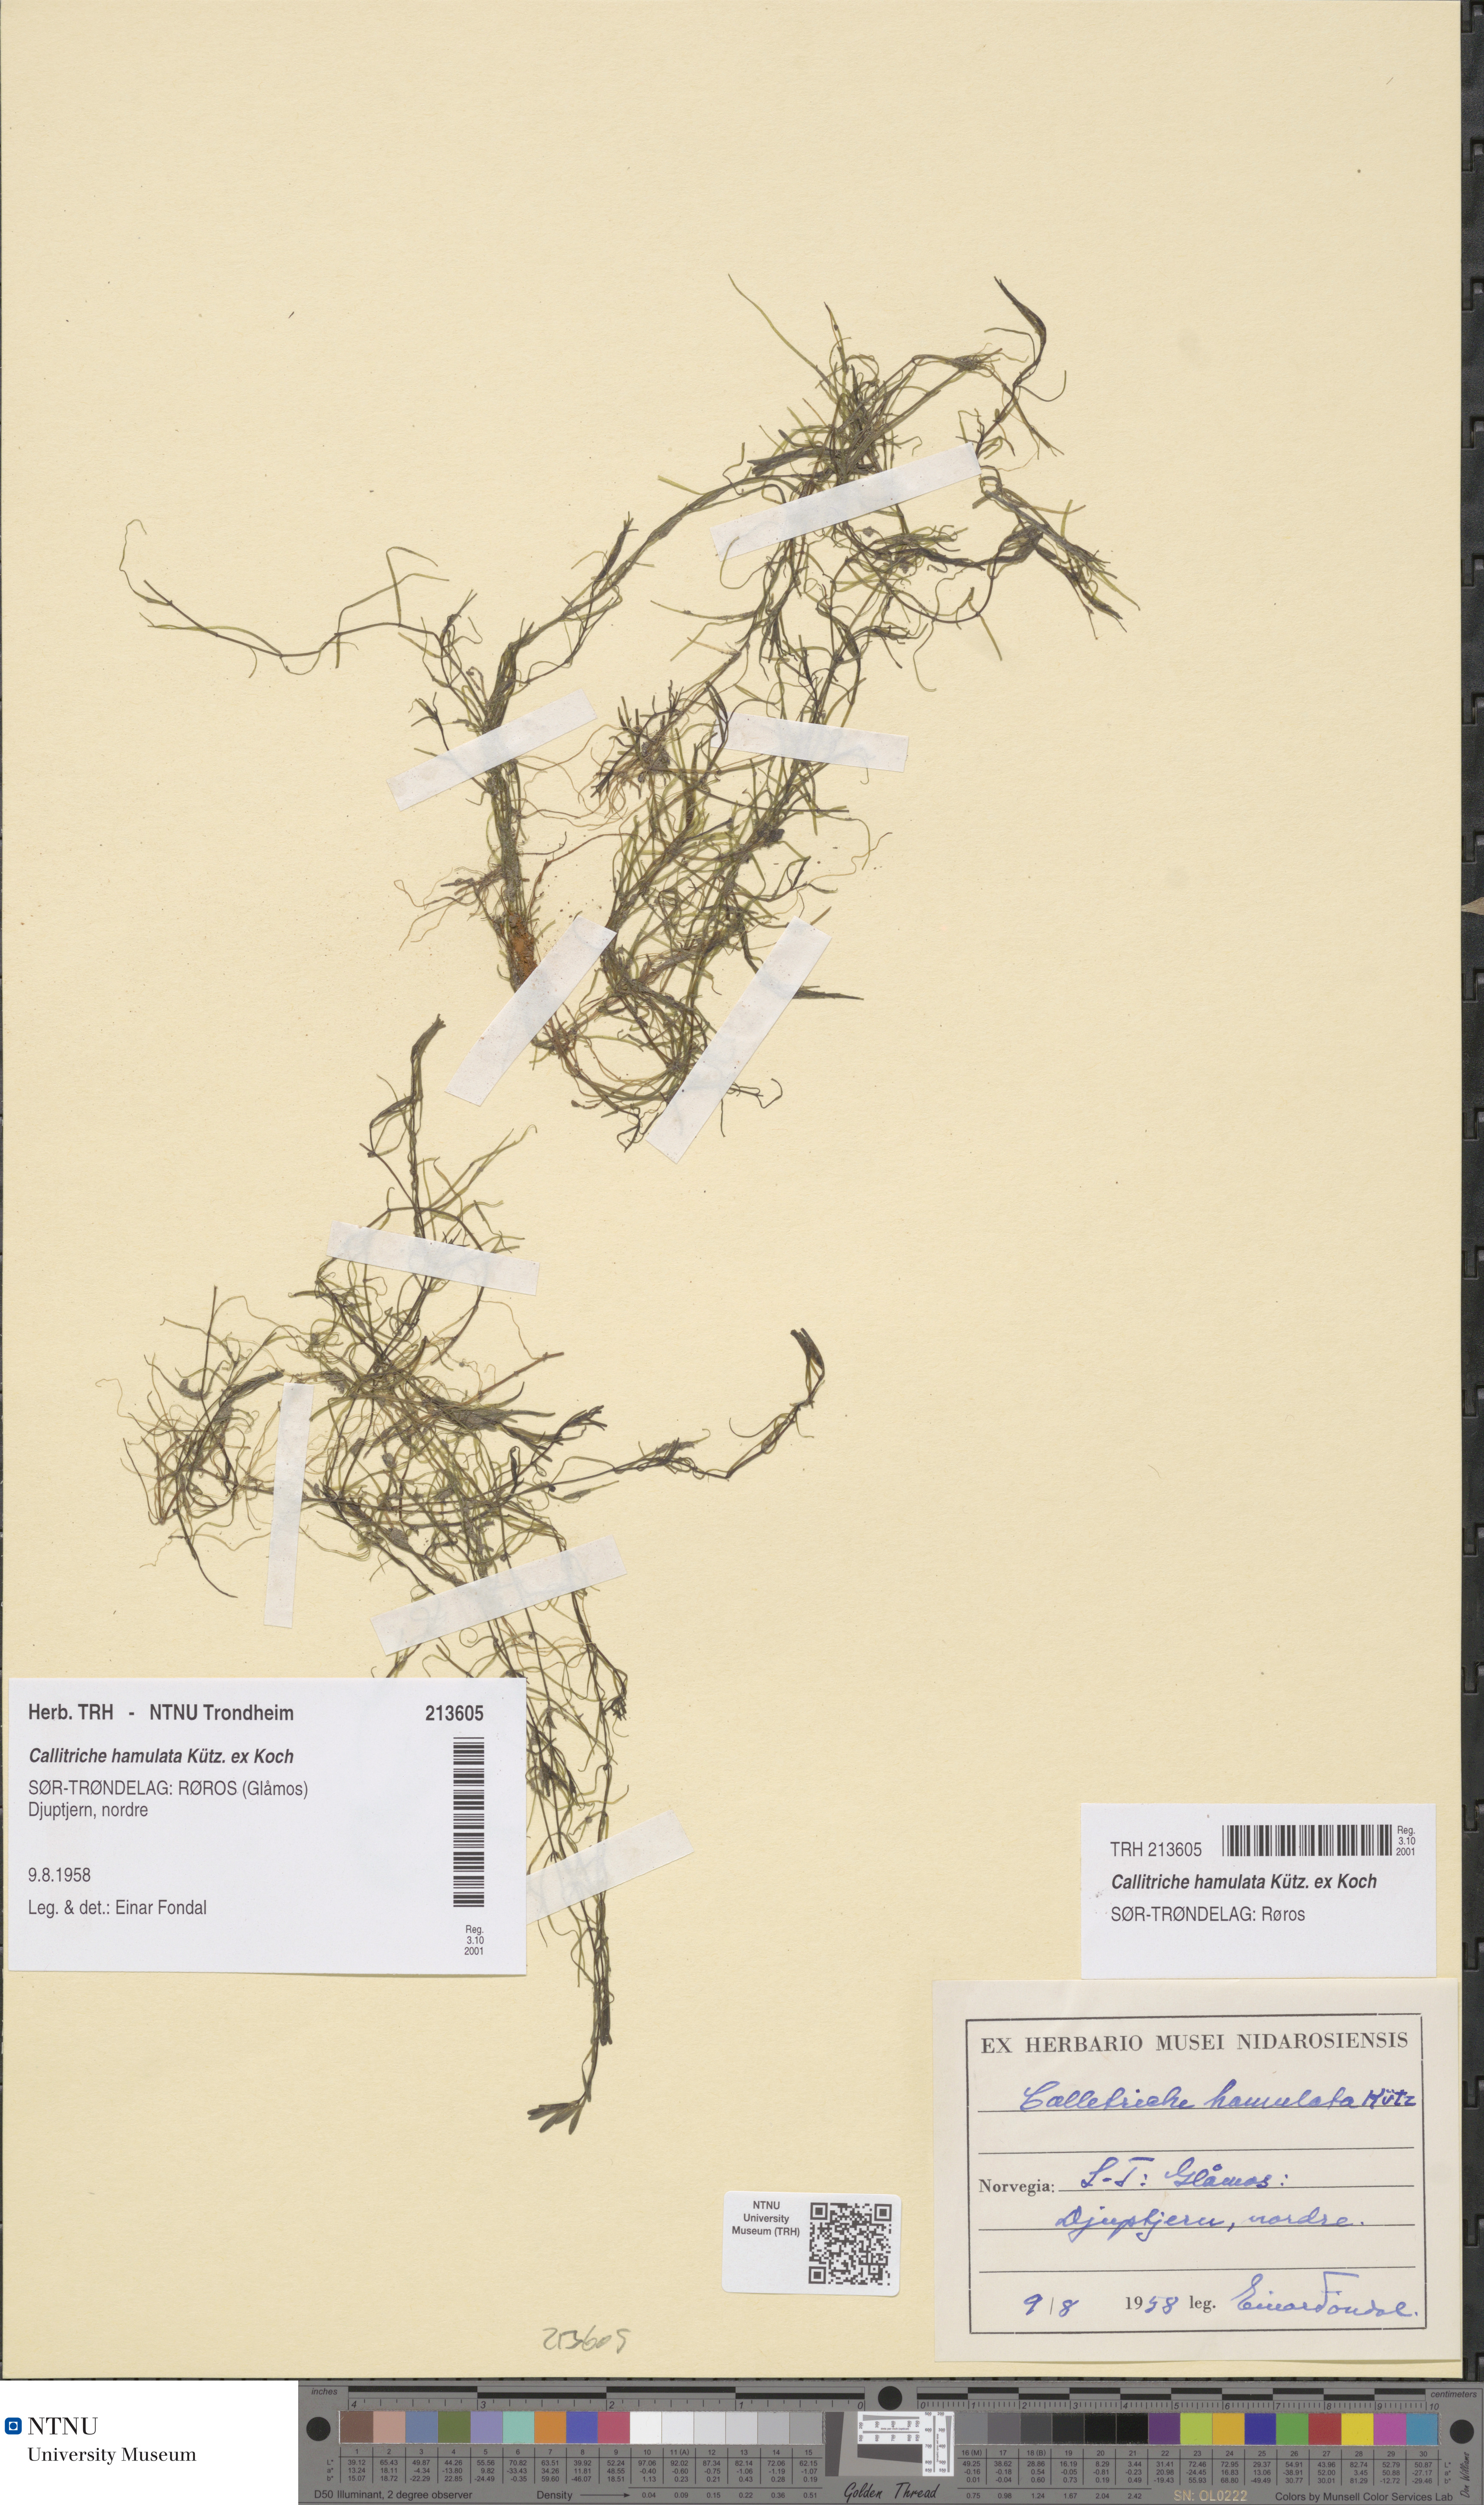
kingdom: Plantae
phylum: Tracheophyta
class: Magnoliopsida
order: Lamiales
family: Plantaginaceae
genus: Callitriche
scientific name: Callitriche hamulata
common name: Intermediate water-starwort
